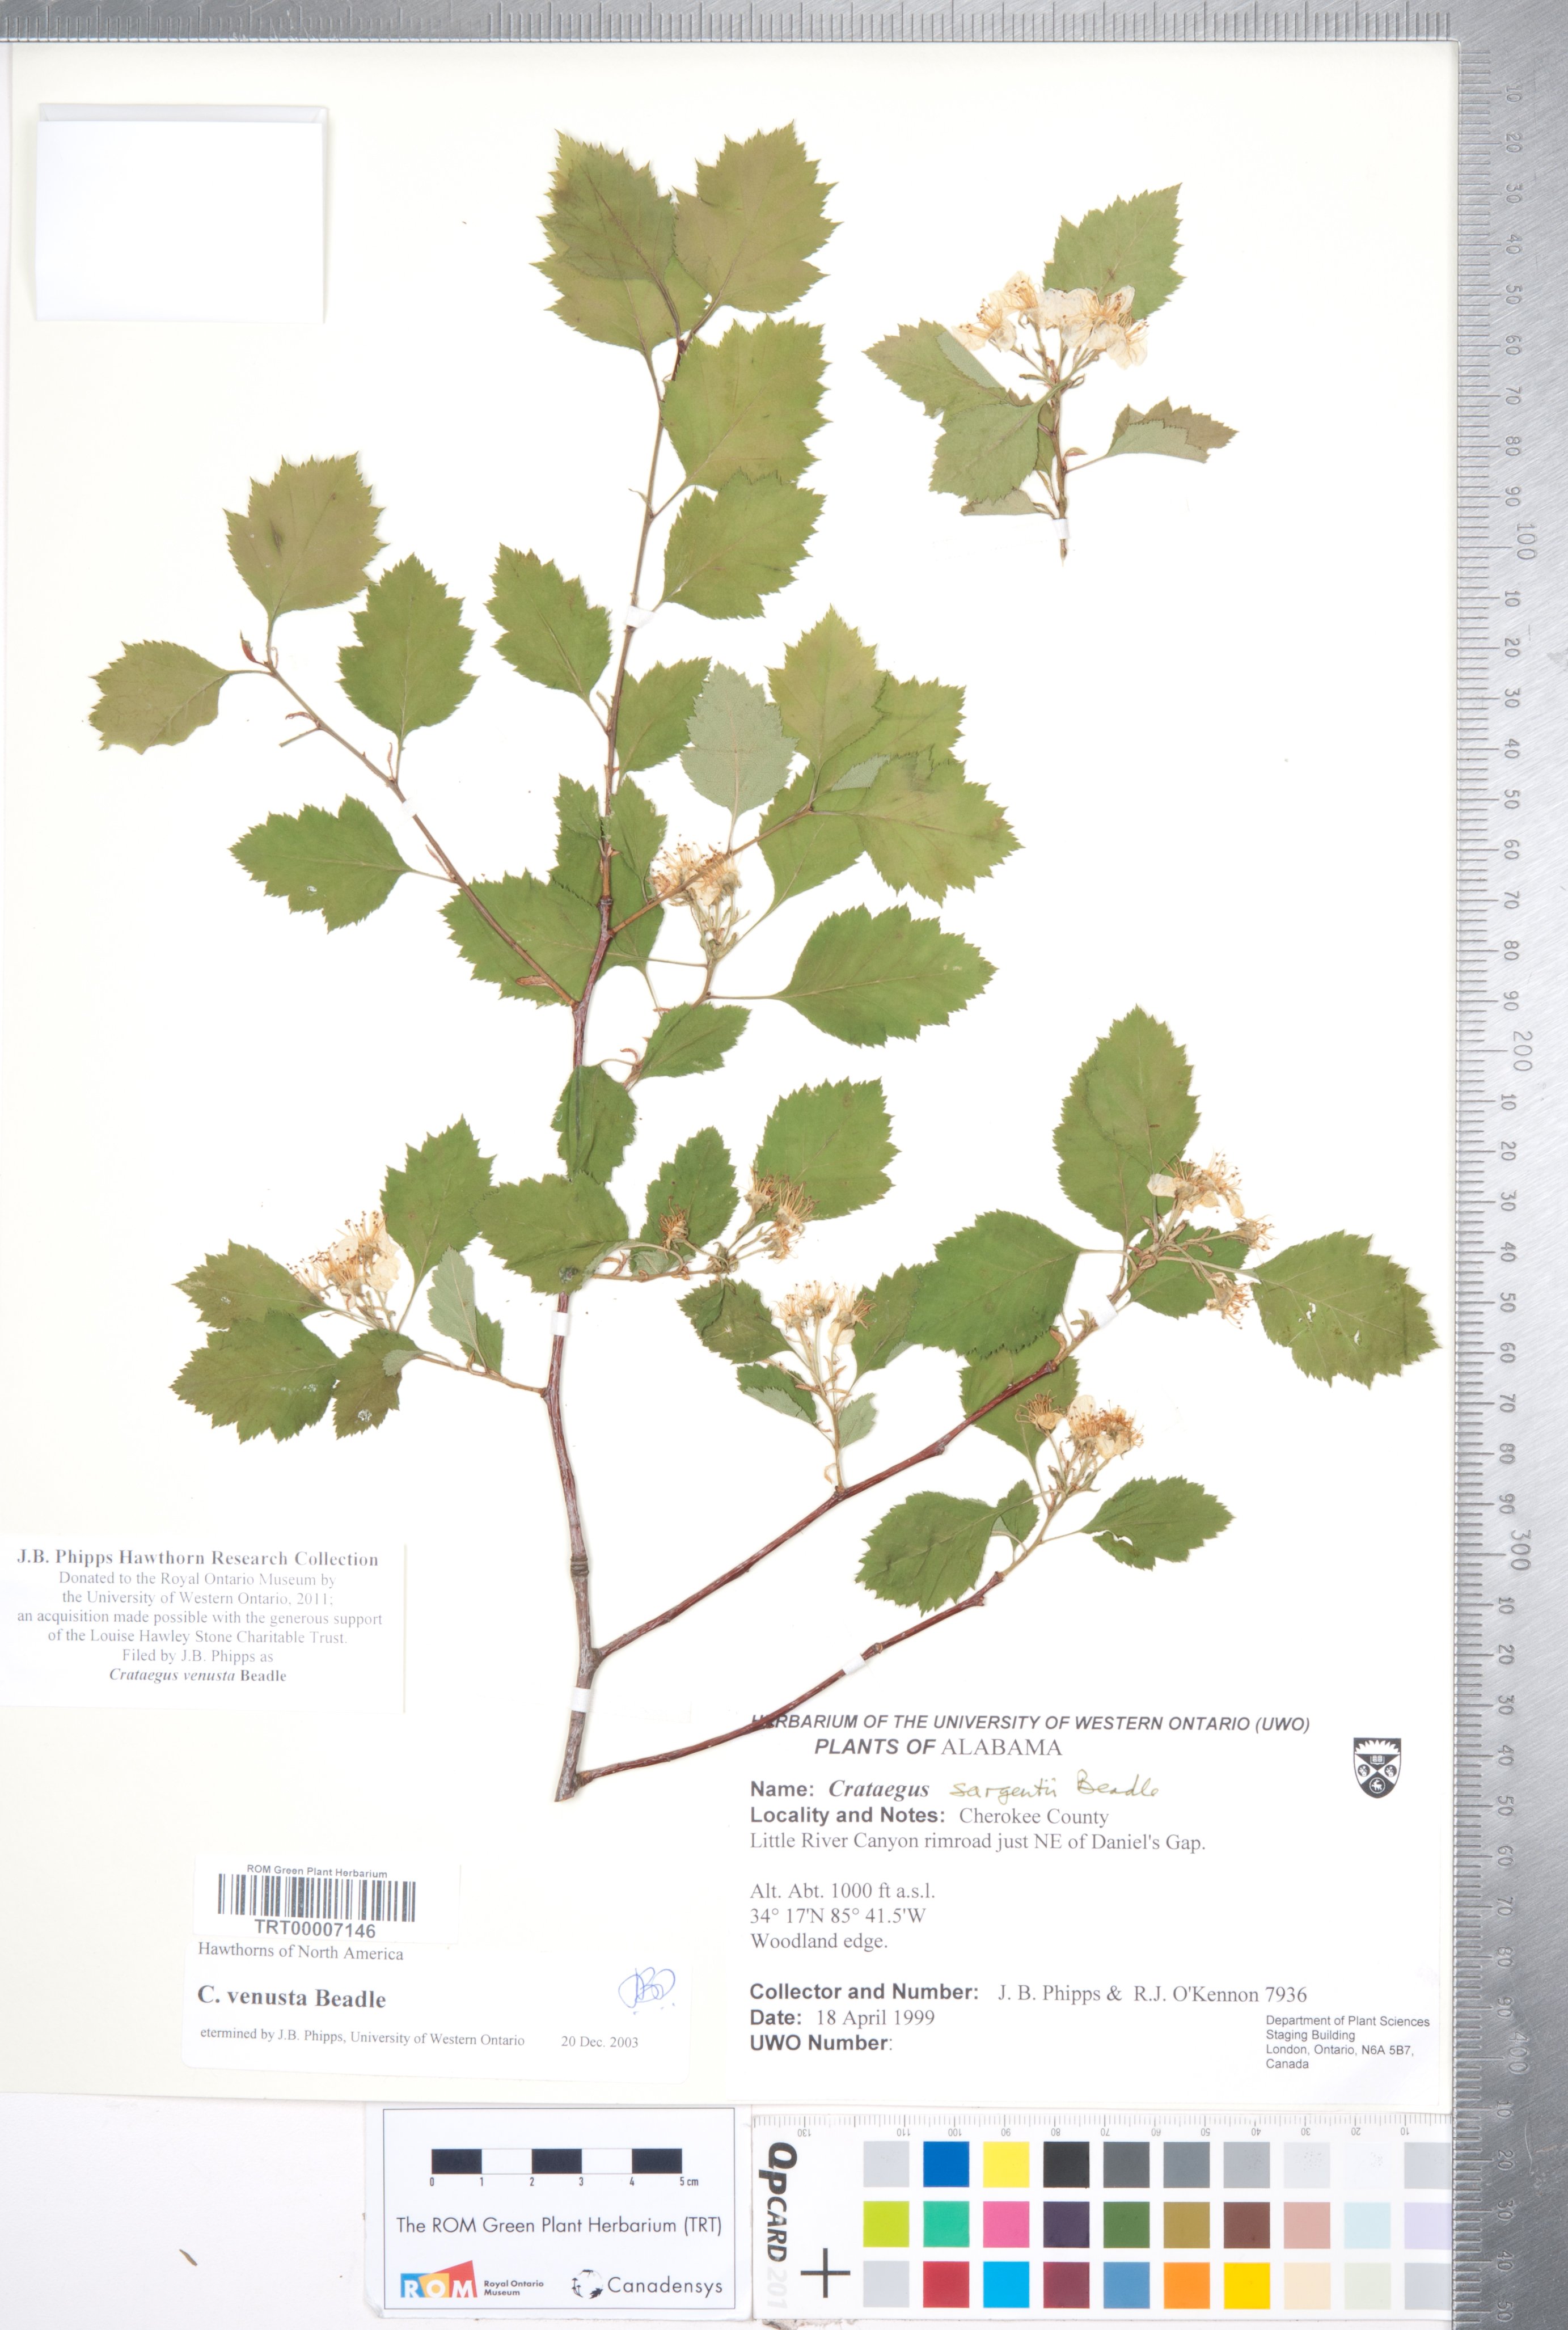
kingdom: Plantae
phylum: Tracheophyta
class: Magnoliopsida
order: Rosales
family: Rosaceae
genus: Crataegus
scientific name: Crataegus venusta
